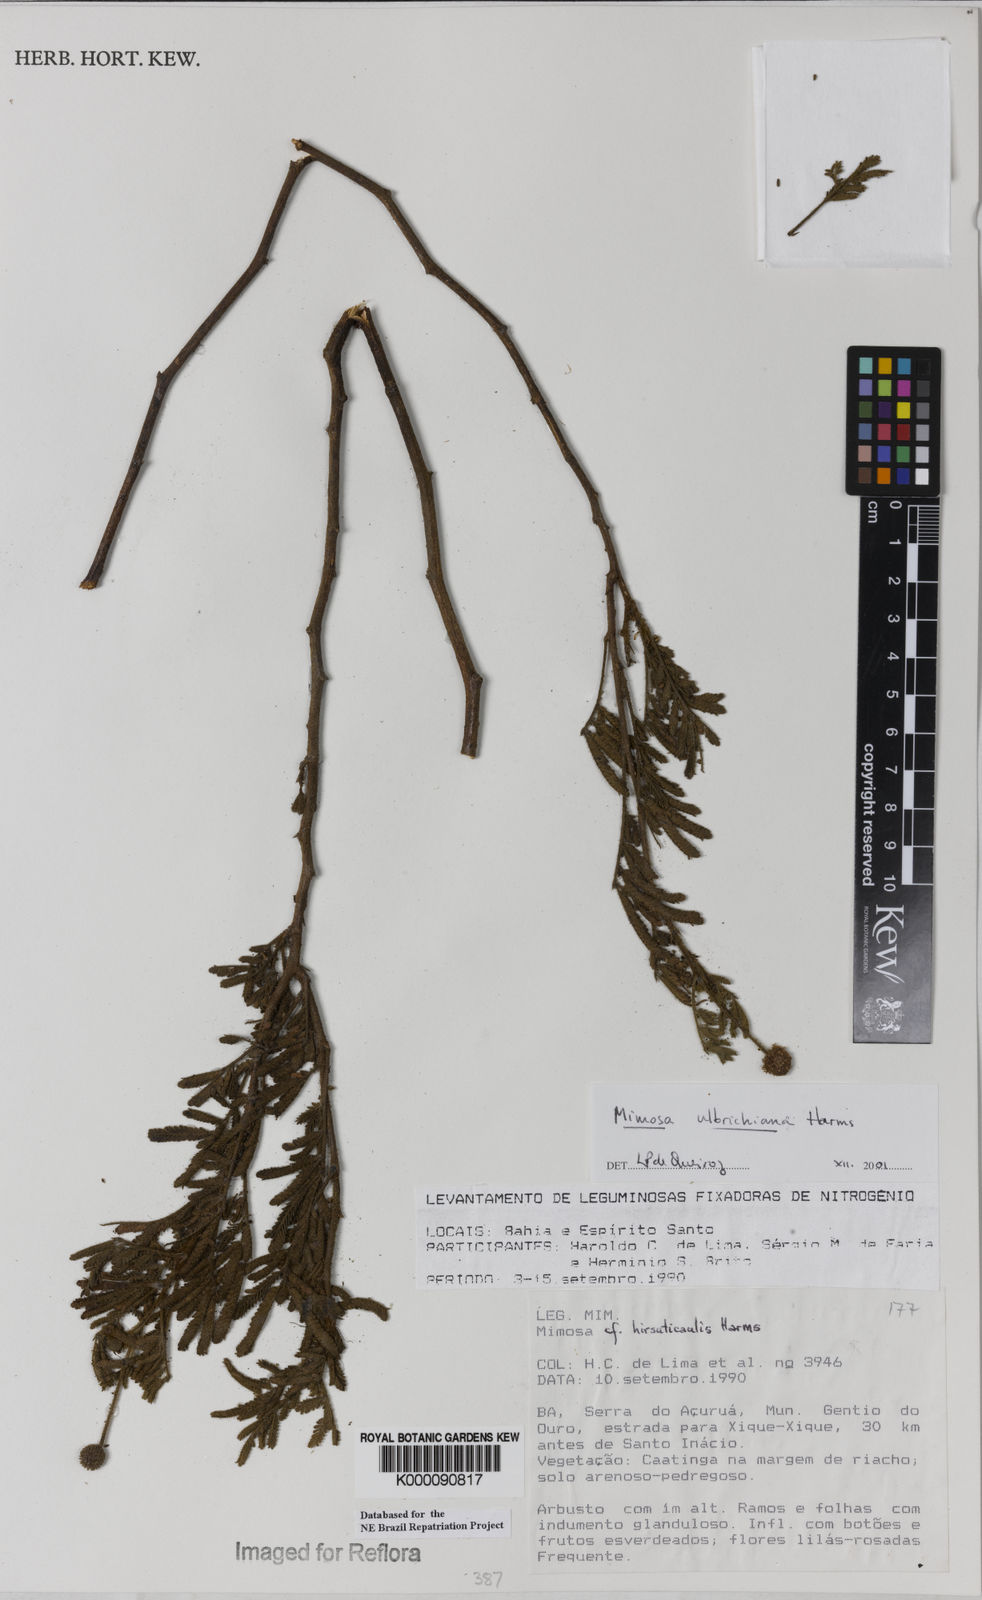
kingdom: Plantae
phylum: Tracheophyta
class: Magnoliopsida
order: Fabales
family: Fabaceae
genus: Mimosa
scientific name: Mimosa ulbrichiana
